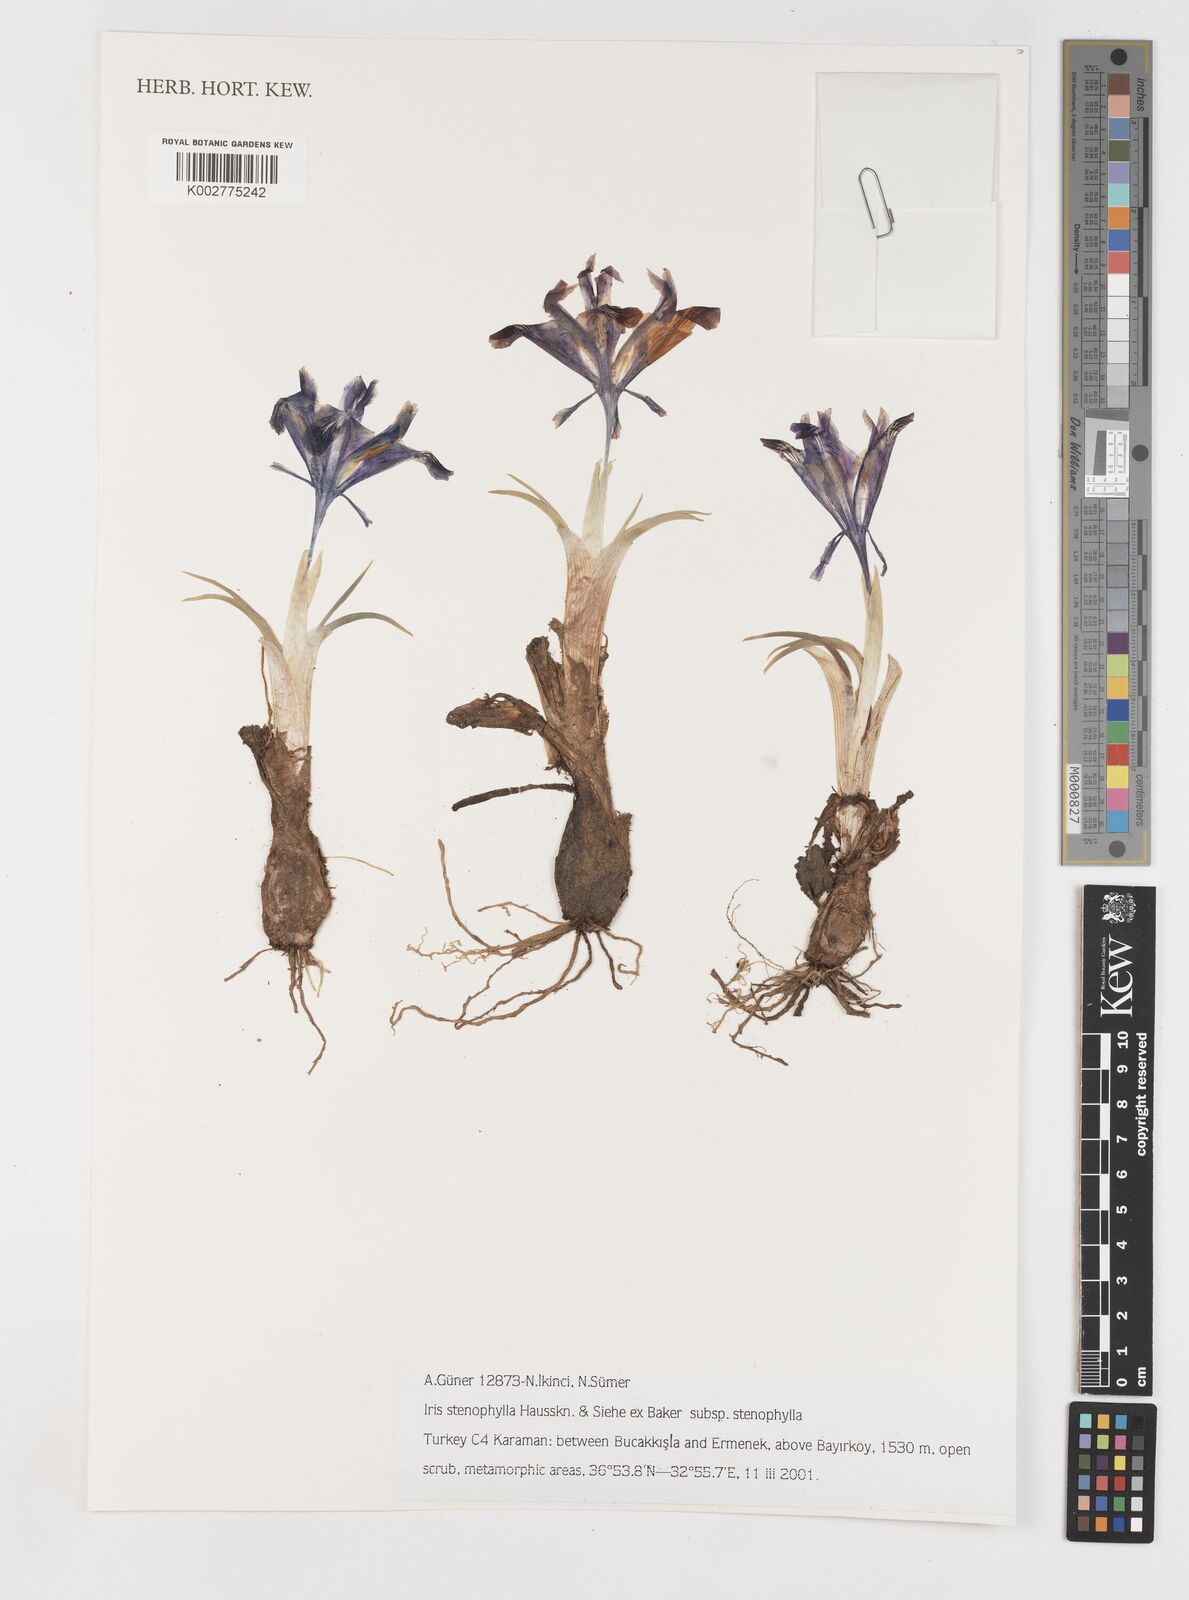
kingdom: Plantae
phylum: Tracheophyta
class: Liliopsida
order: Asparagales
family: Iridaceae
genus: Iris
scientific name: Iris stenophylla
